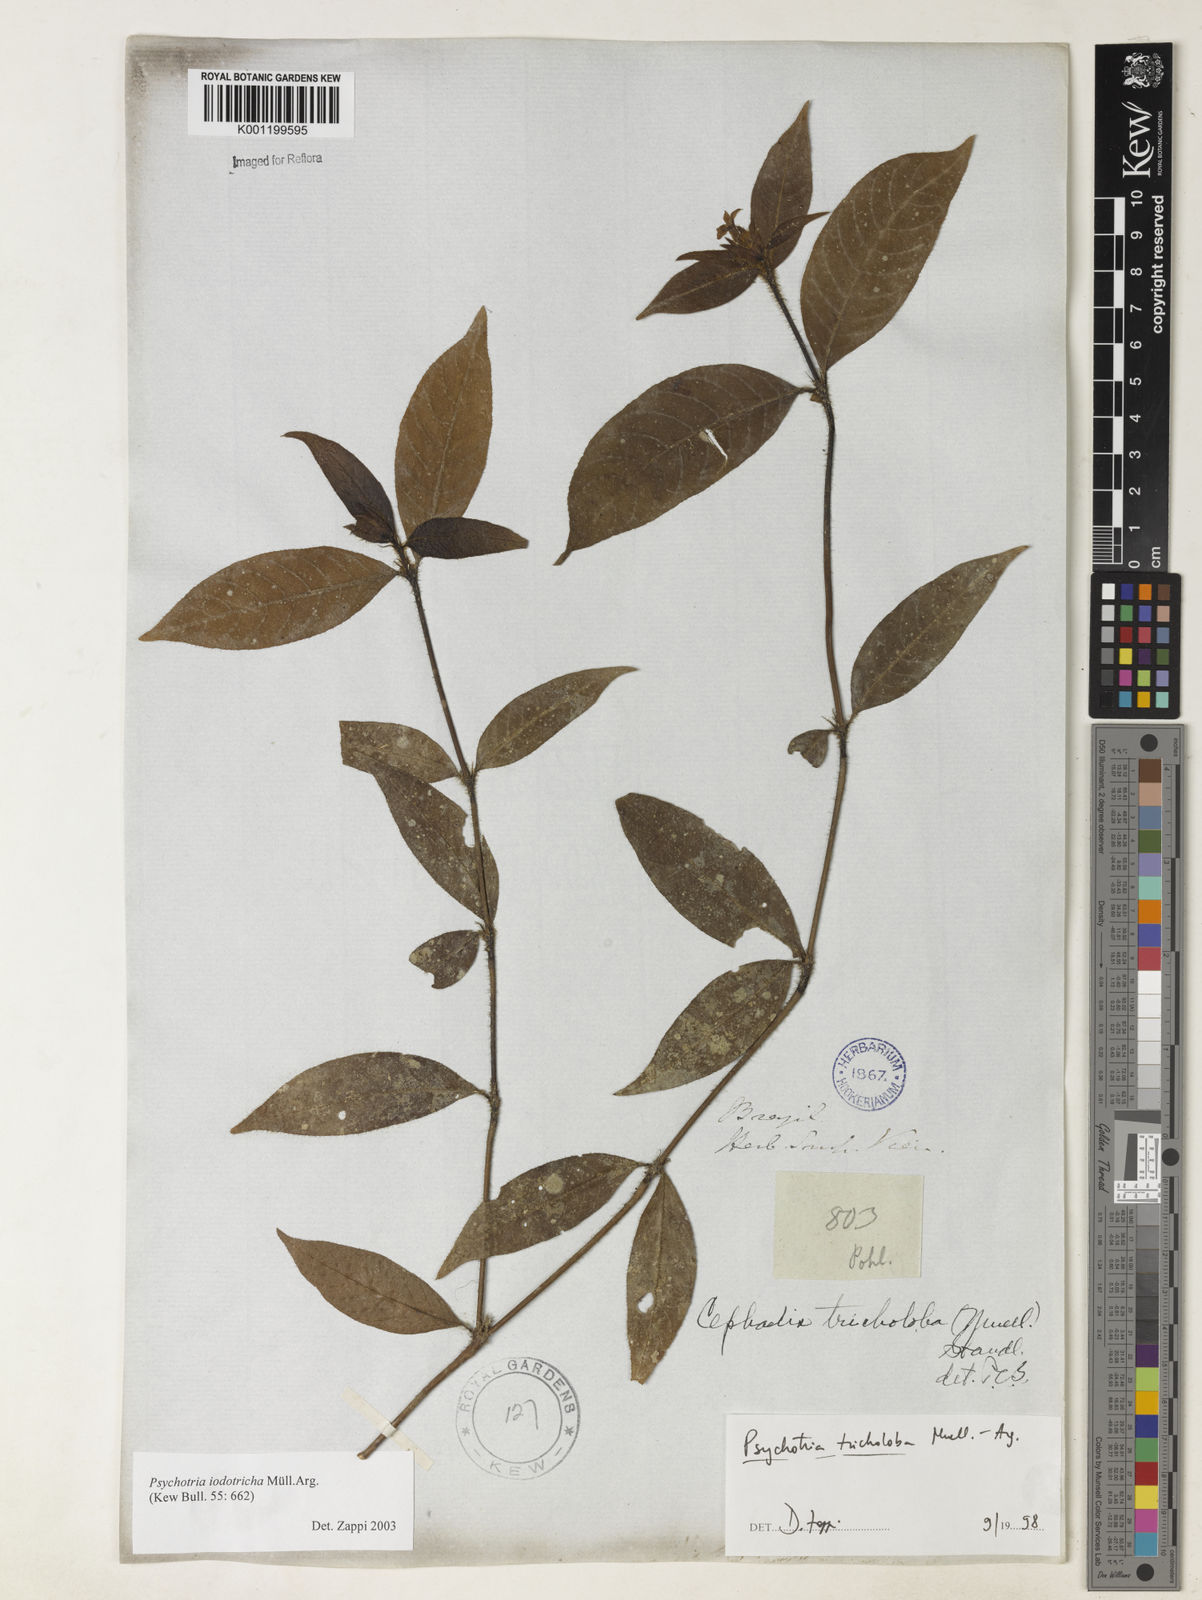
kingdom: Plantae
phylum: Tracheophyta
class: Magnoliopsida
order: Gentianales
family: Rubiaceae
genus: Psychotria
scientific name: Psychotria
